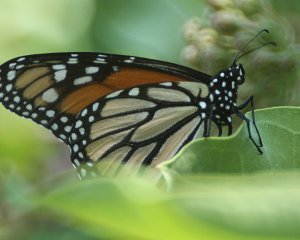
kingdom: Animalia
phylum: Arthropoda
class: Insecta
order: Lepidoptera
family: Nymphalidae
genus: Danaus
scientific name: Danaus plexippus
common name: Monarch
